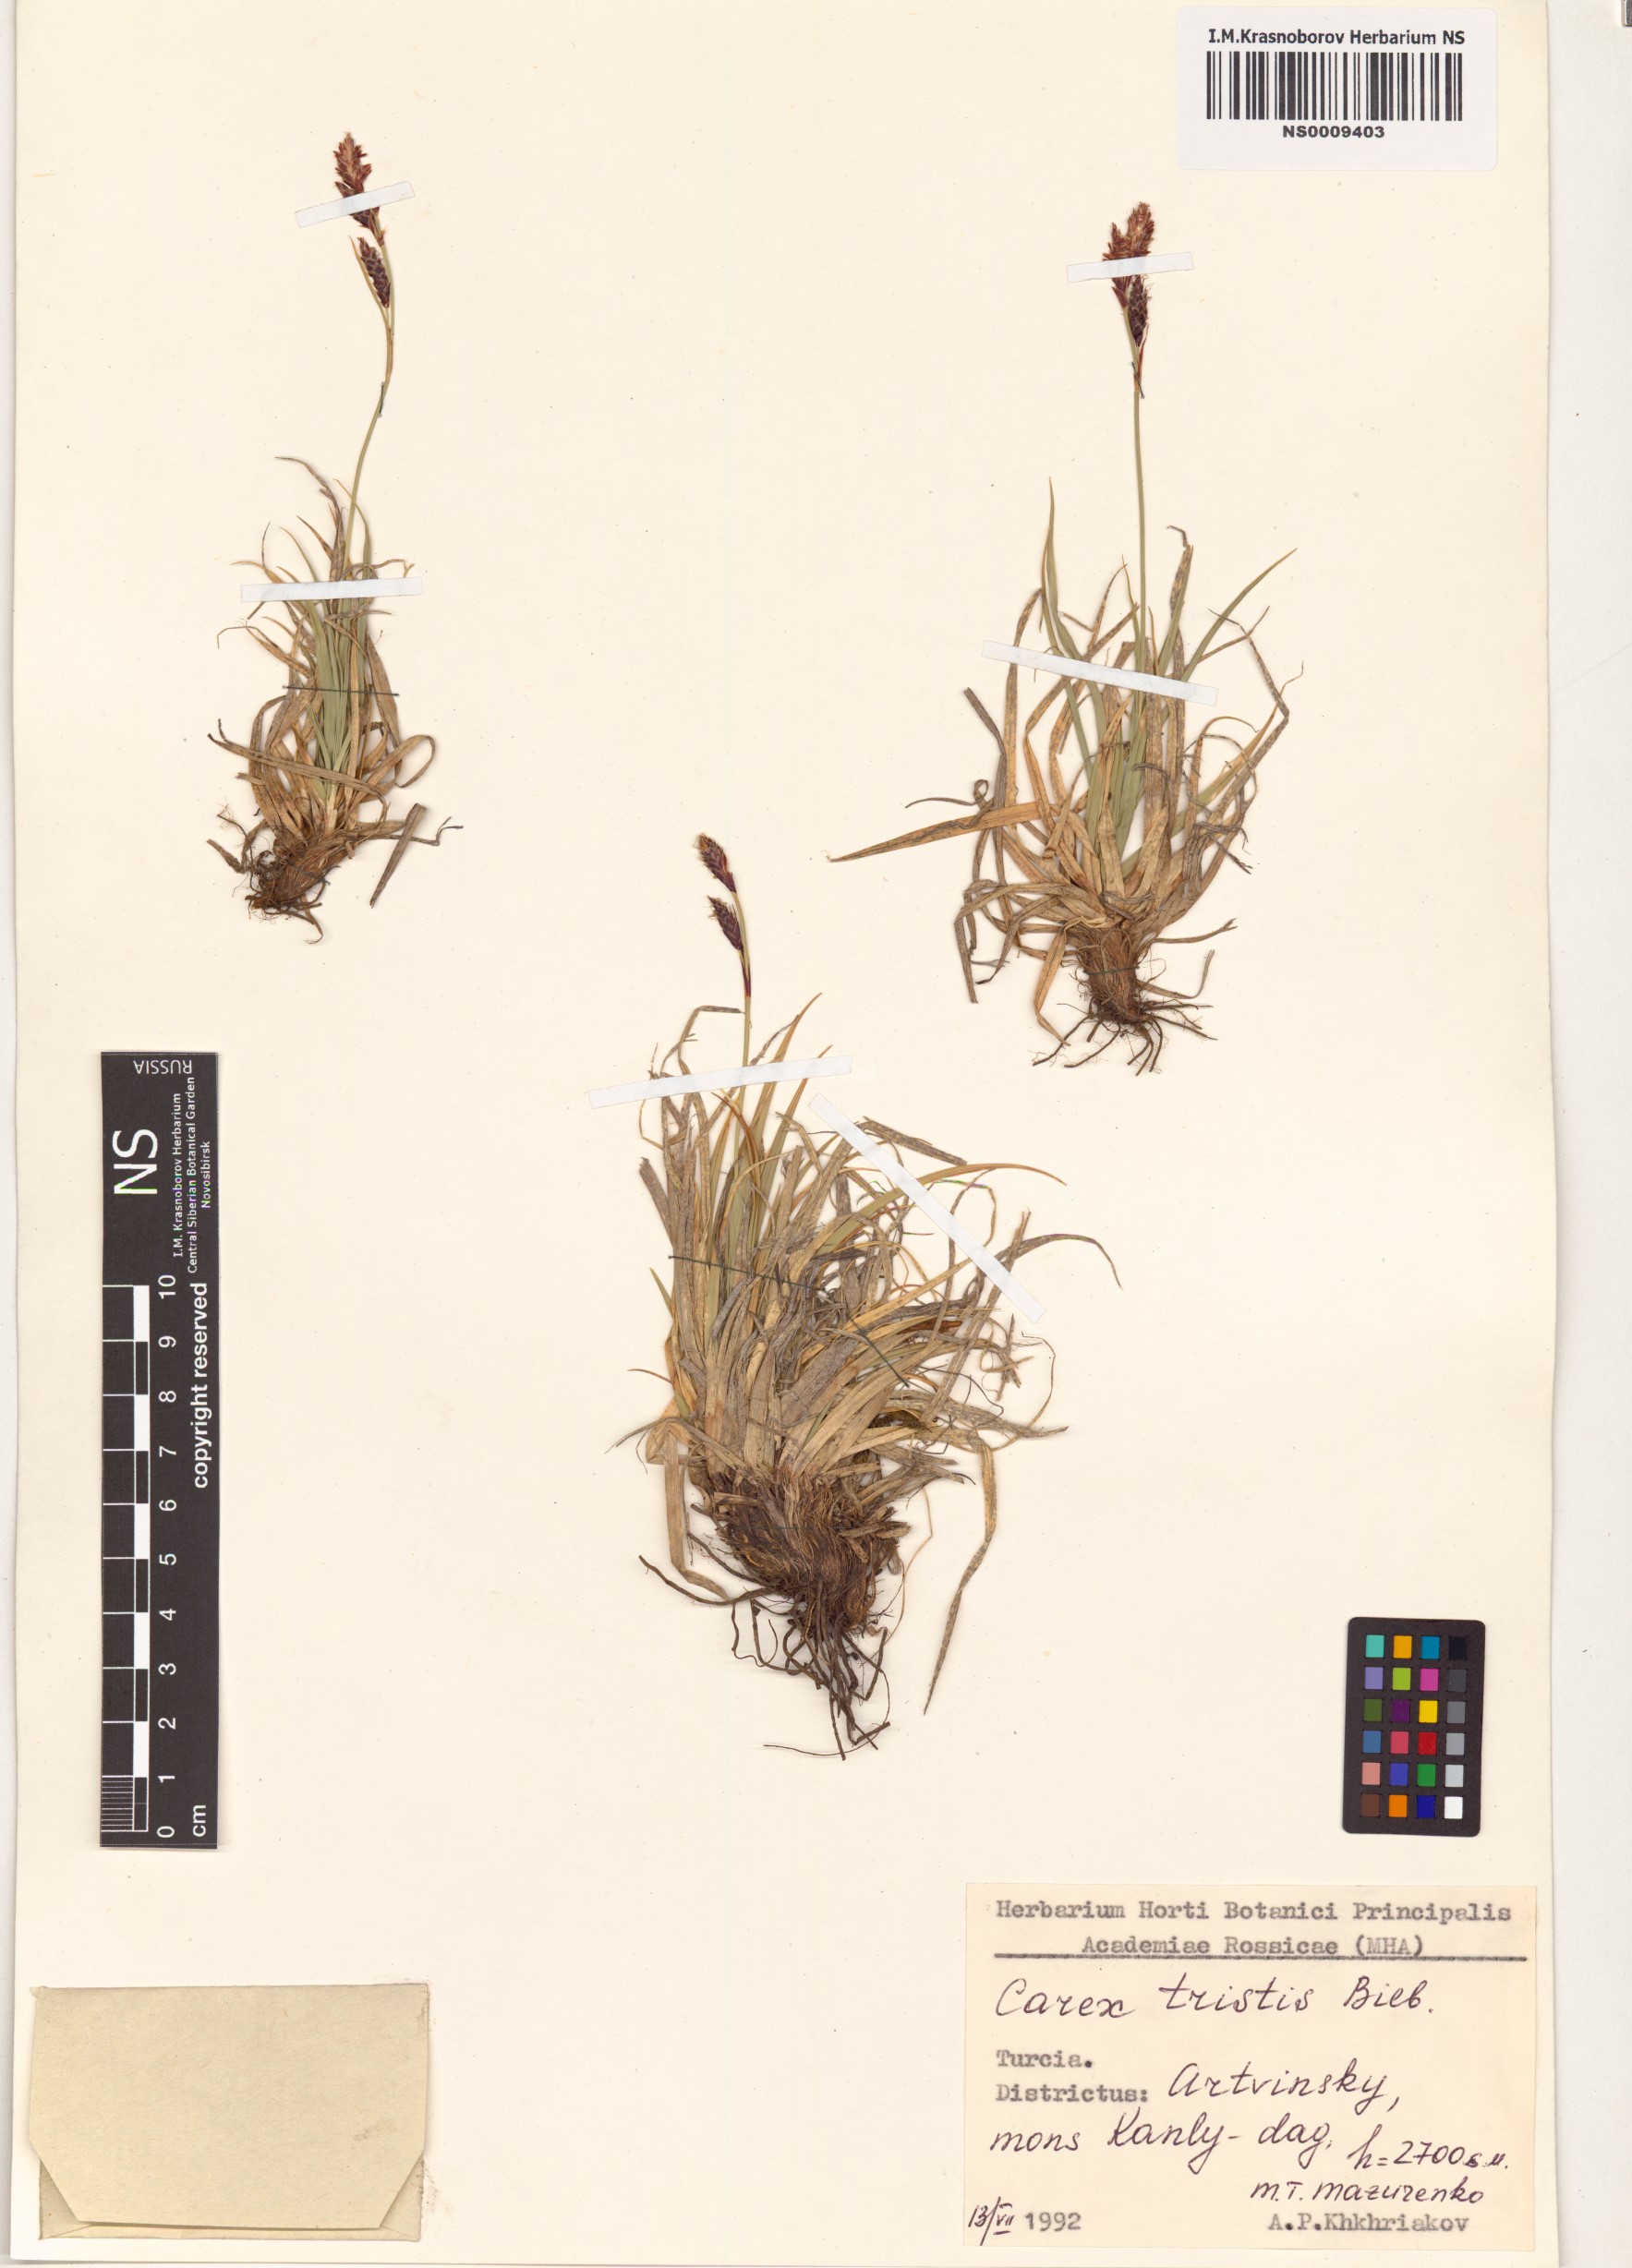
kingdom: Plantae
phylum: Tracheophyta
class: Liliopsida
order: Poales
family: Cyperaceae
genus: Carex
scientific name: Carex tristis
